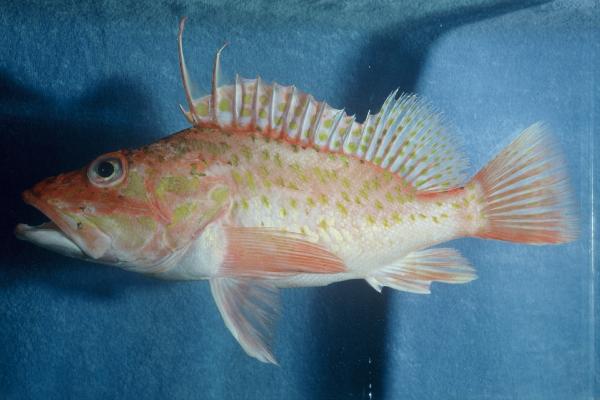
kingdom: Animalia
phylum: Chordata
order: Scorpaeniformes
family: Scorpaenidae
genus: Pontinus
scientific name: Pontinus kuhlii
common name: Offshore rockfish
